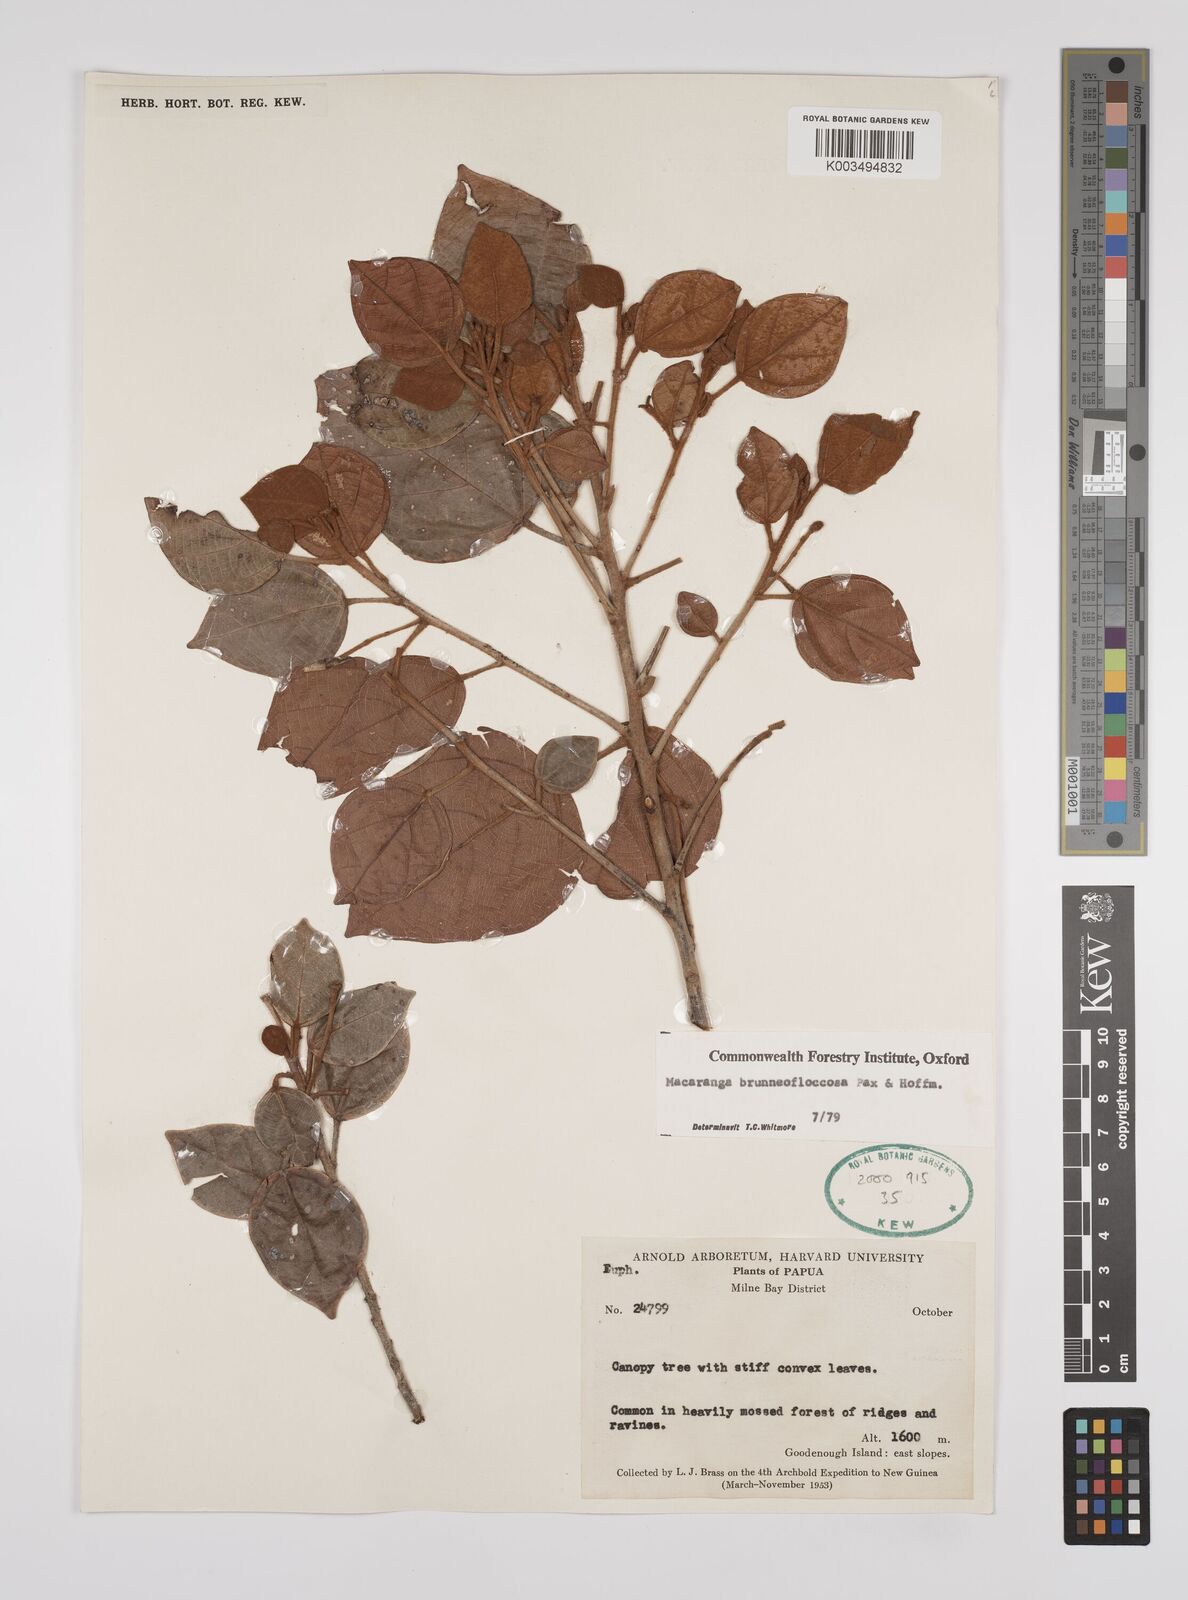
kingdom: Plantae
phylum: Tracheophyta
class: Magnoliopsida
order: Malpighiales
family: Euphorbiaceae
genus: Macaranga
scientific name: Macaranga brunneofloccosa
